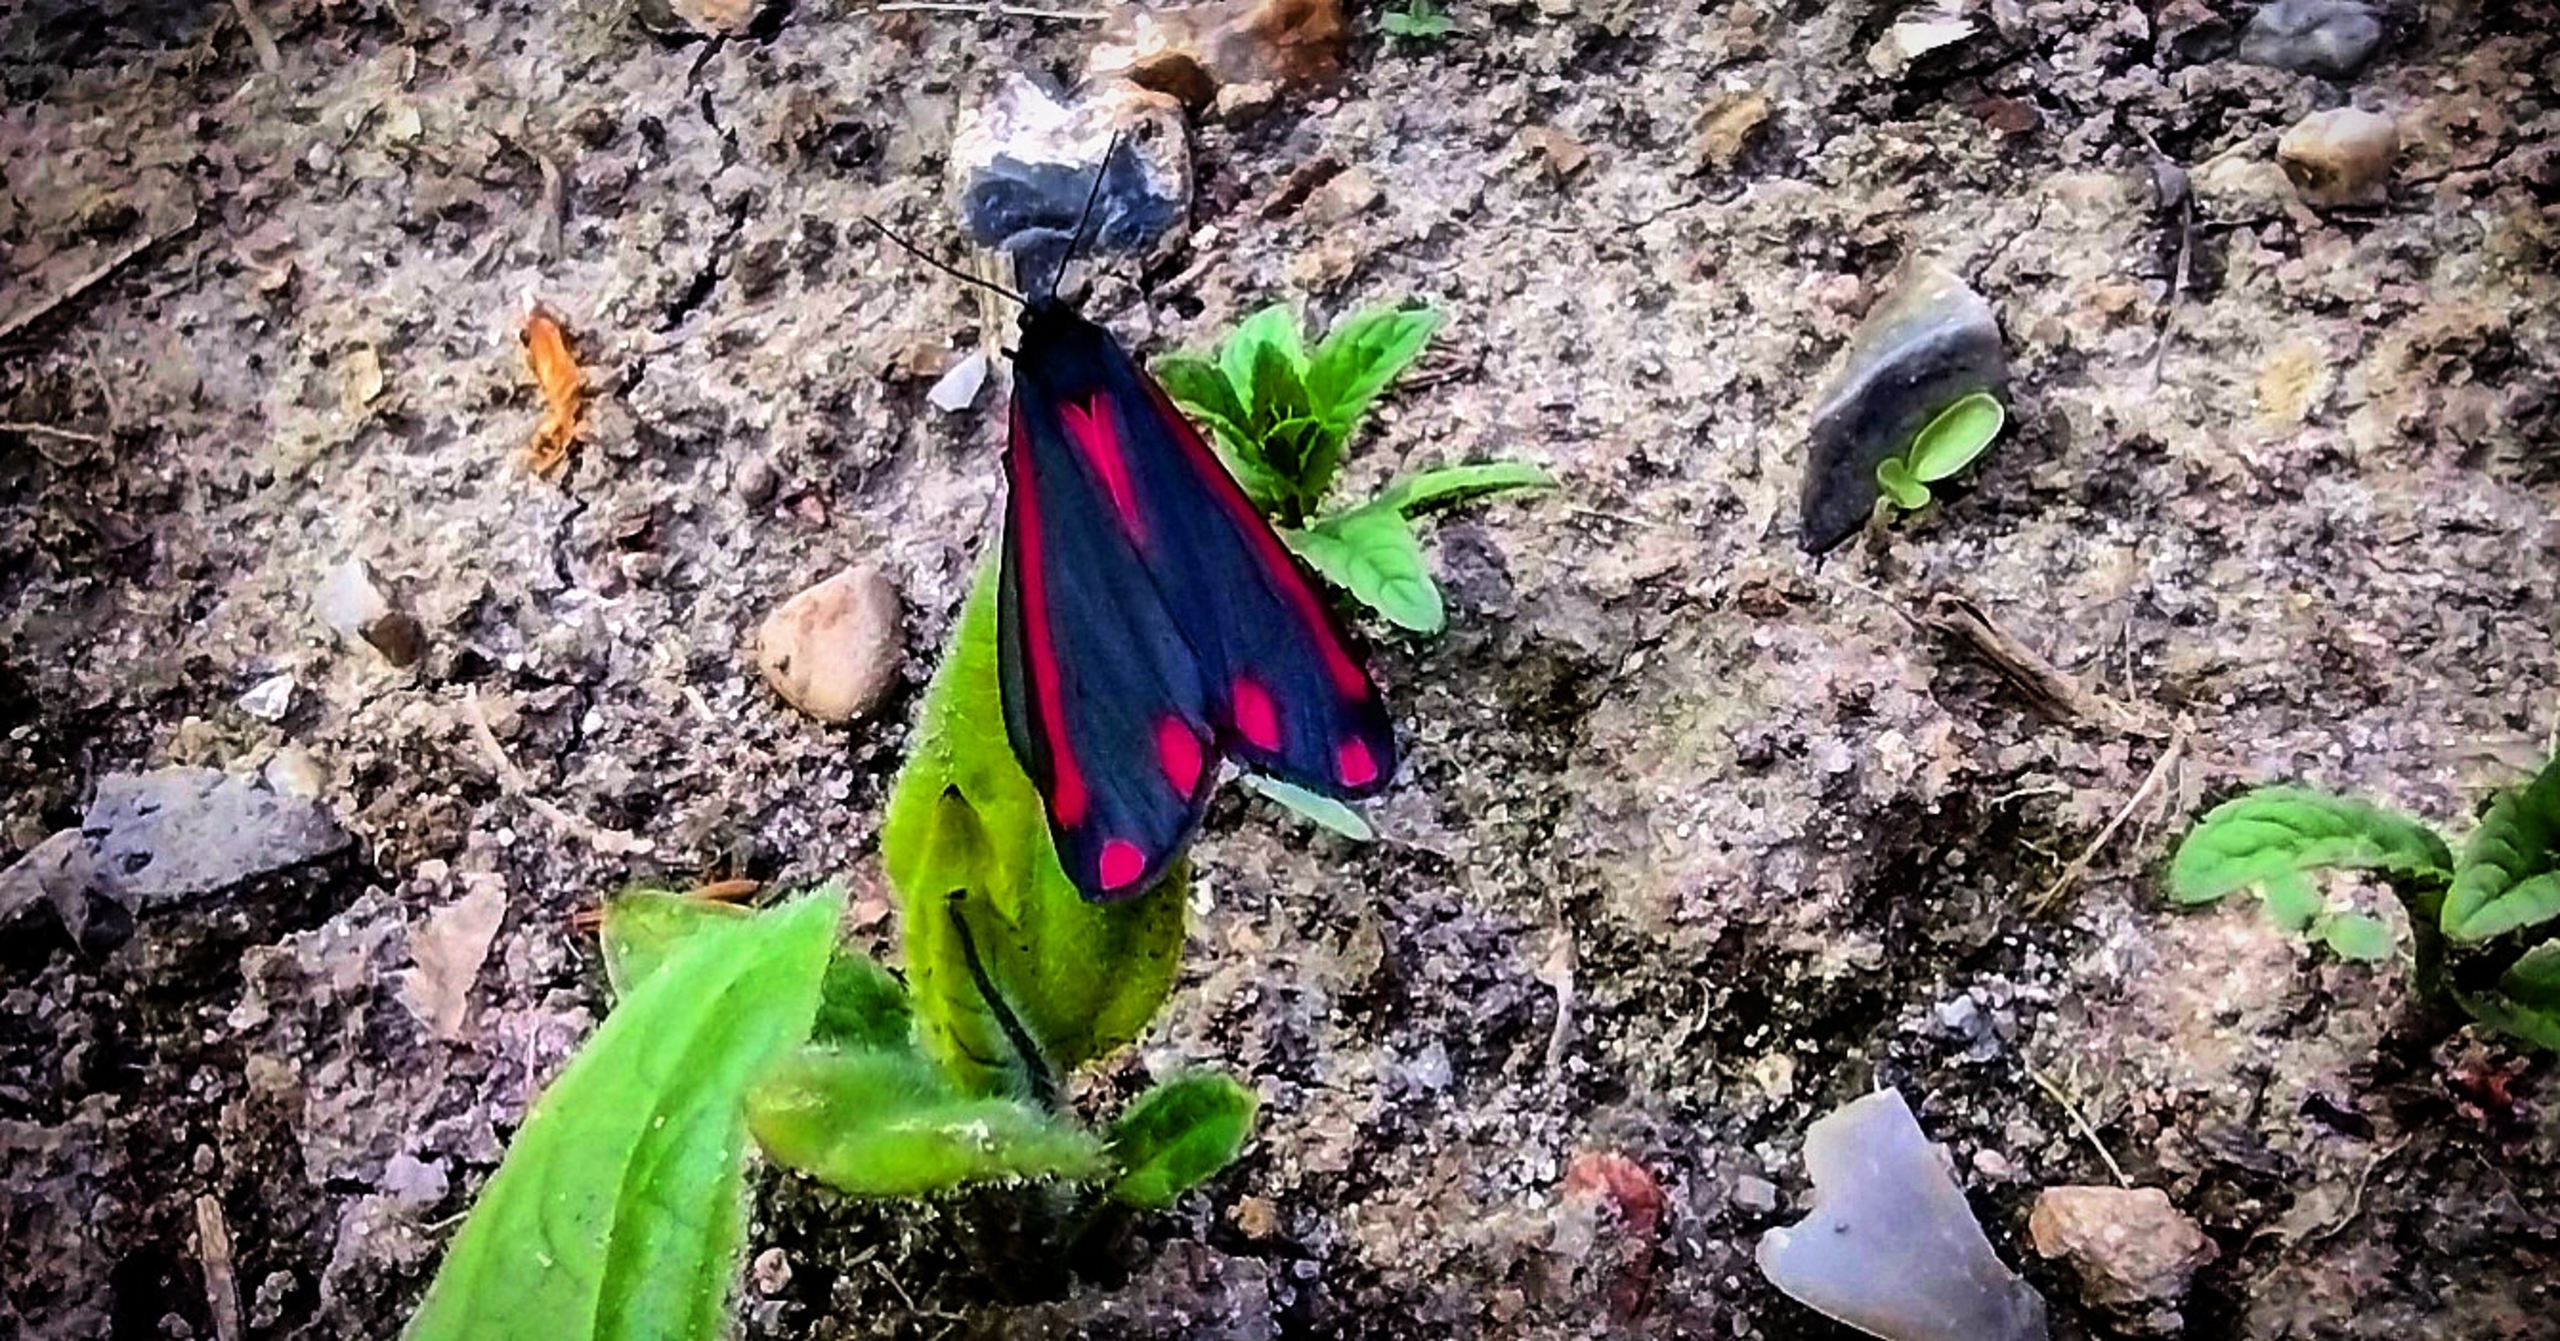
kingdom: Animalia
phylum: Arthropoda
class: Insecta
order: Lepidoptera
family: Erebidae
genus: Tyria
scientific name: Tyria jacobaeae
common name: Blodplet
